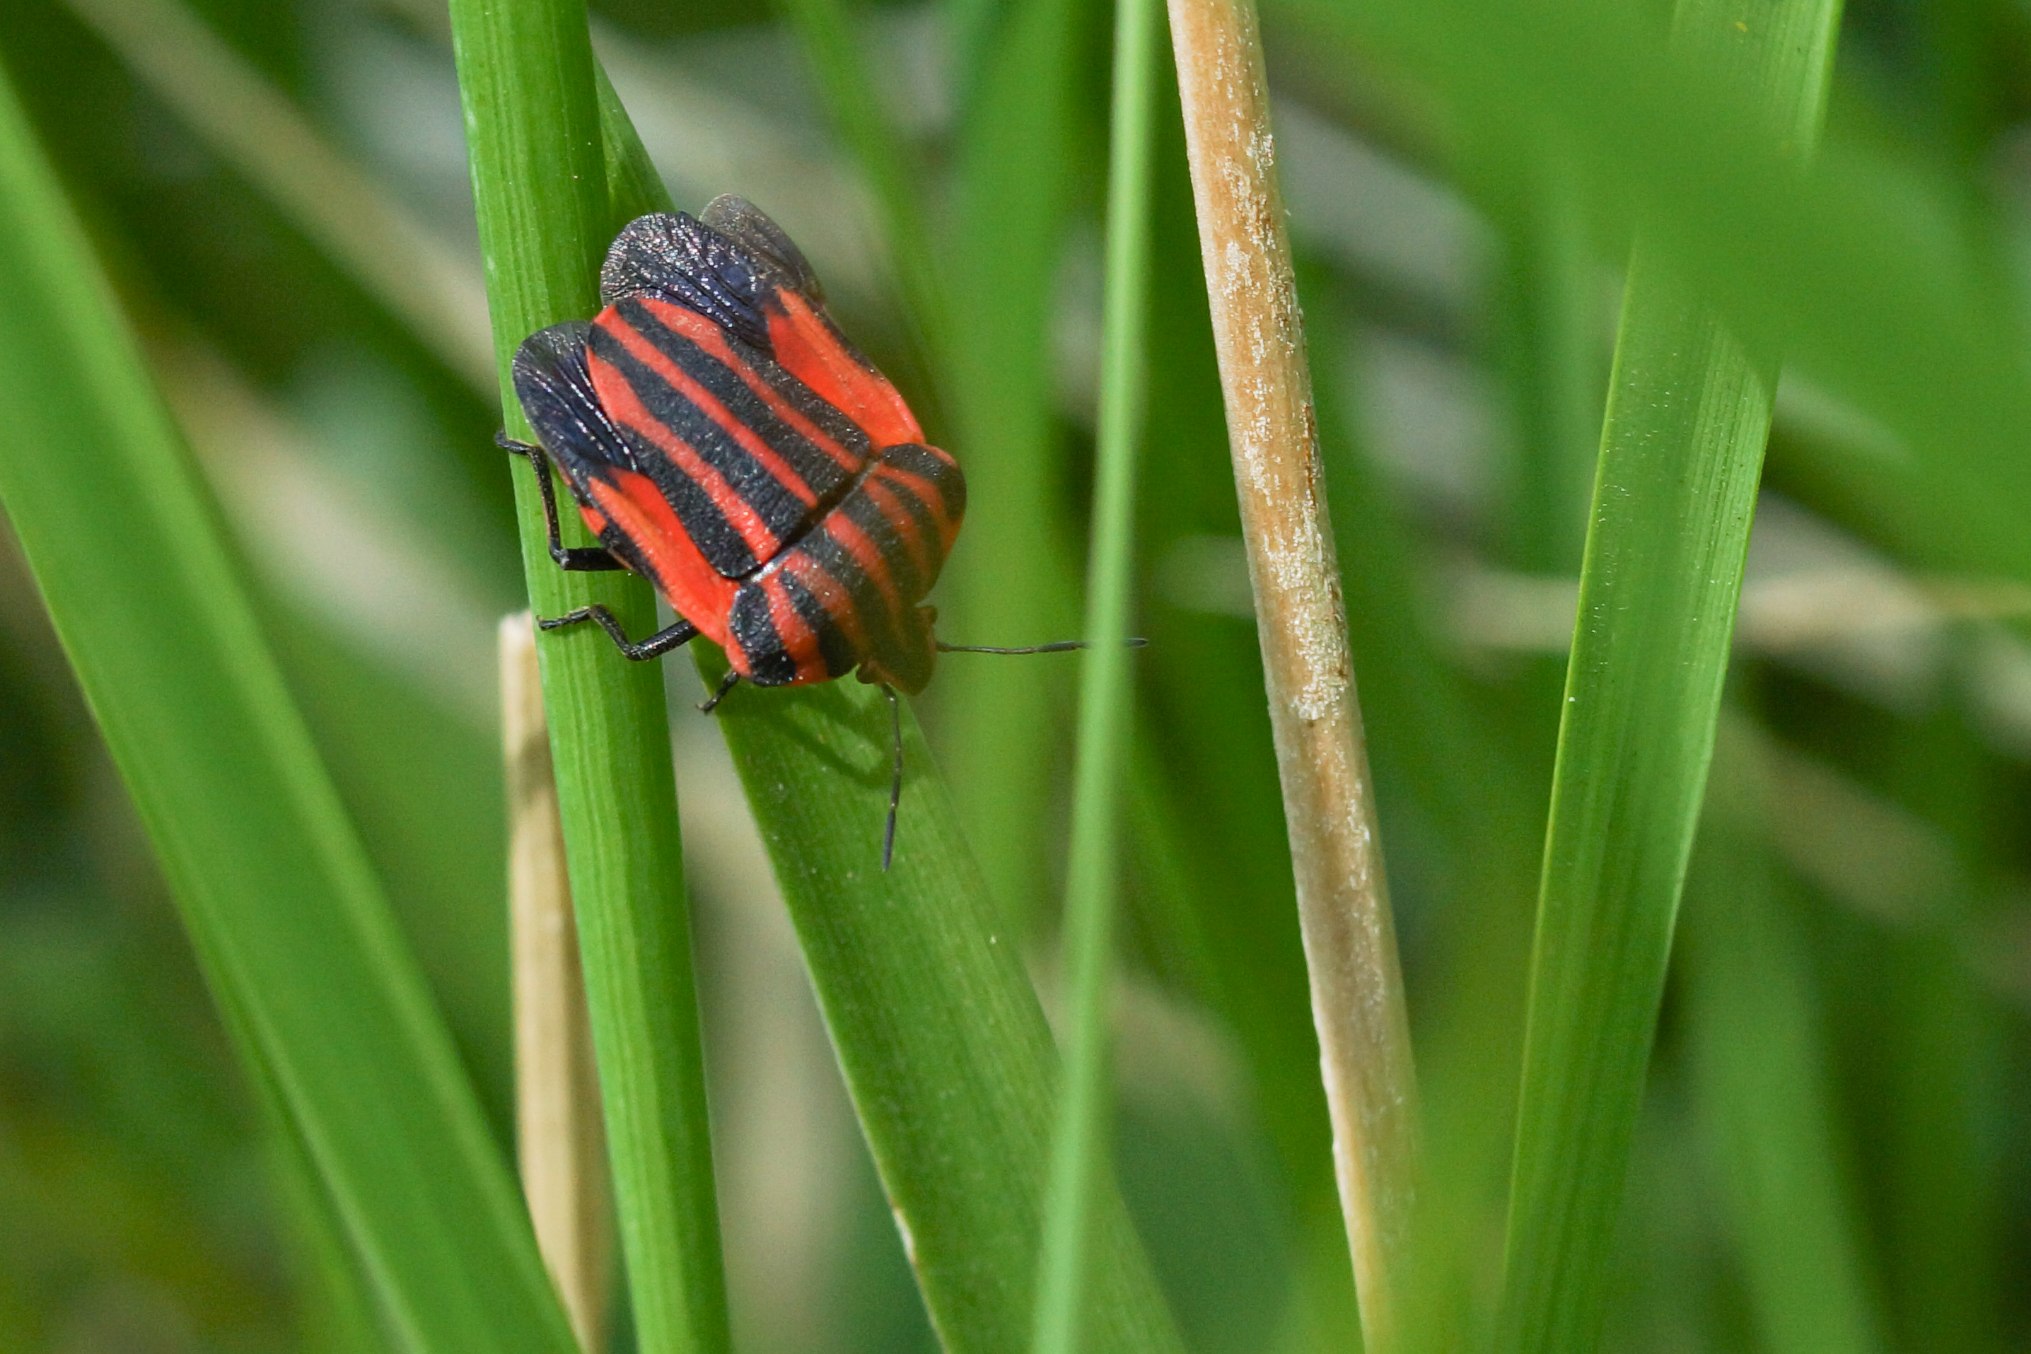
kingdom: Animalia
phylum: Arthropoda
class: Insecta
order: Hemiptera
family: Pentatomidae
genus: Graphosoma
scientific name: Graphosoma italicum
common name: Stribetæge
